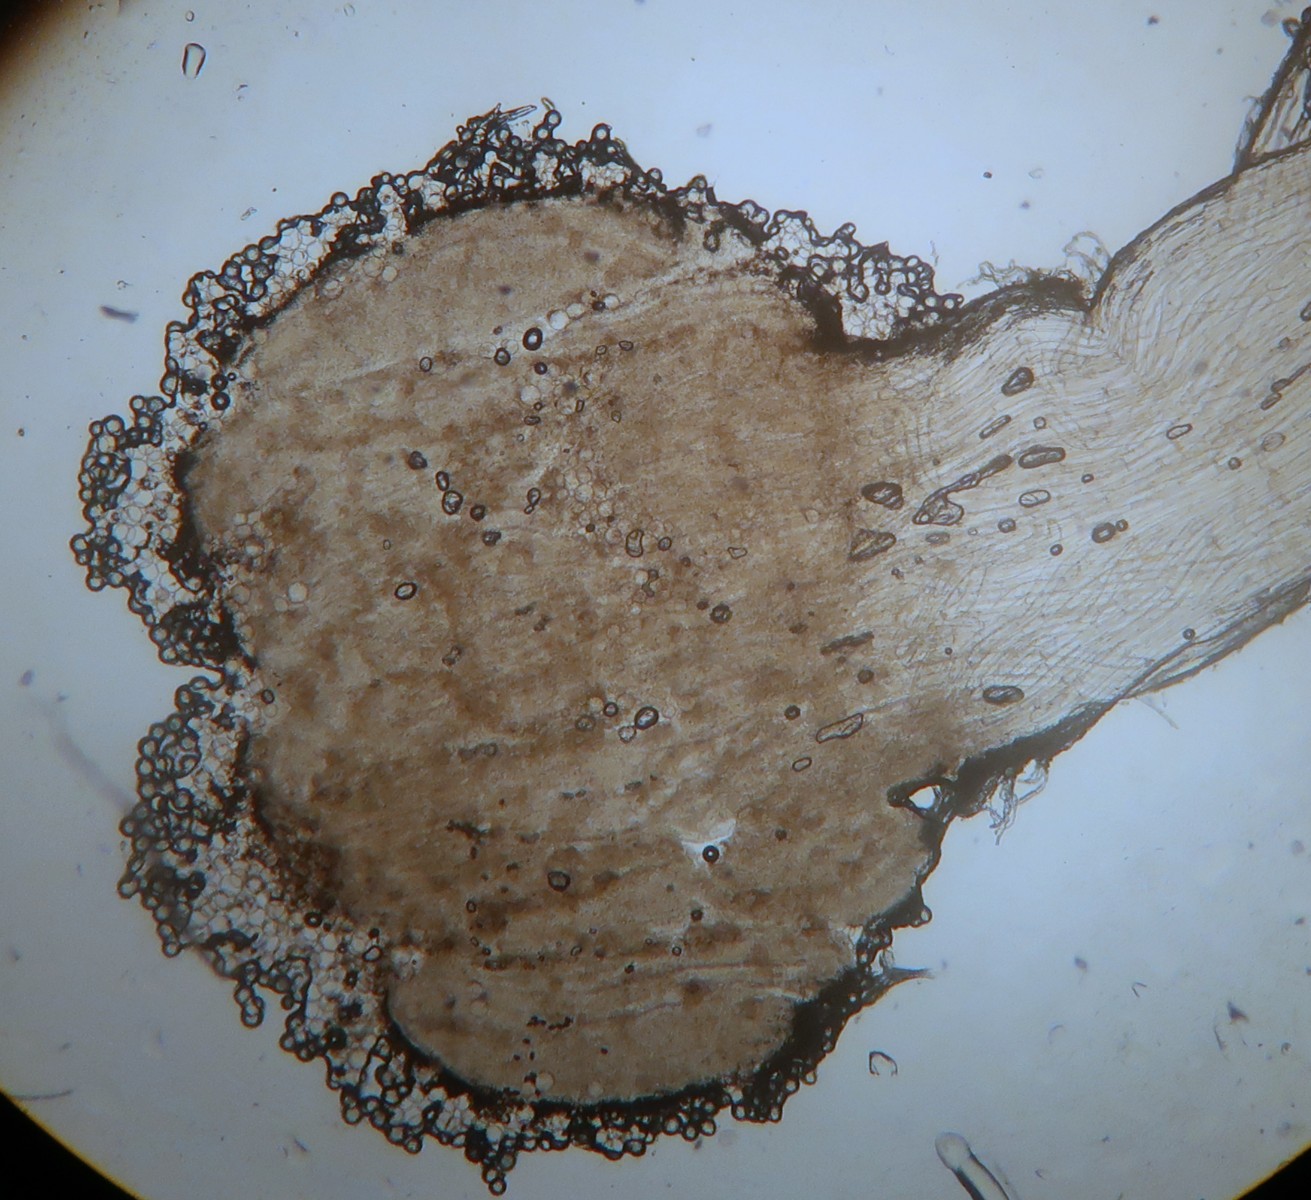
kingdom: Fungi
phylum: Basidiomycota
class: Agaricomycetes
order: Agaricales
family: Psathyrellaceae
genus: Coprinopsis
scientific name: Coprinopsis stercorea
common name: pjusket blækhat
